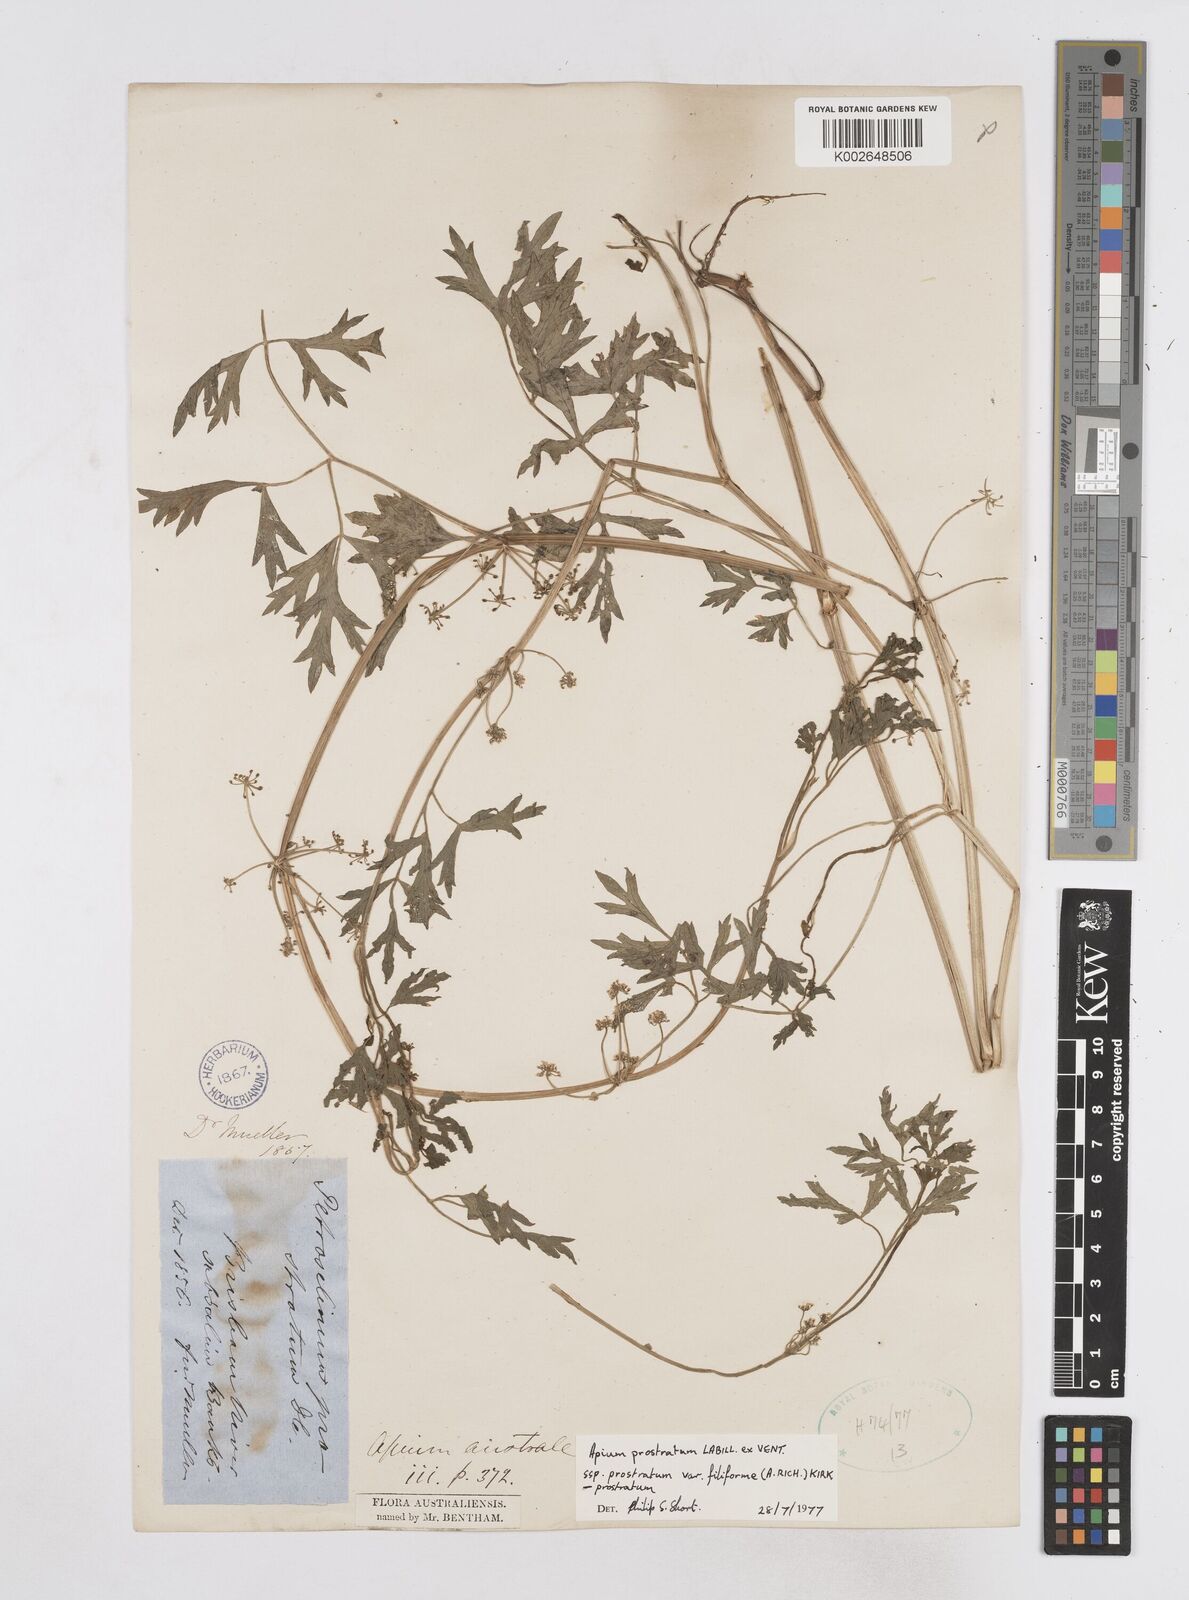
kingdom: Plantae
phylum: Tracheophyta
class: Magnoliopsida
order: Apiales
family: Apiaceae
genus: Apium
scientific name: Apium prostratum
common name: Prostrate marshwort
